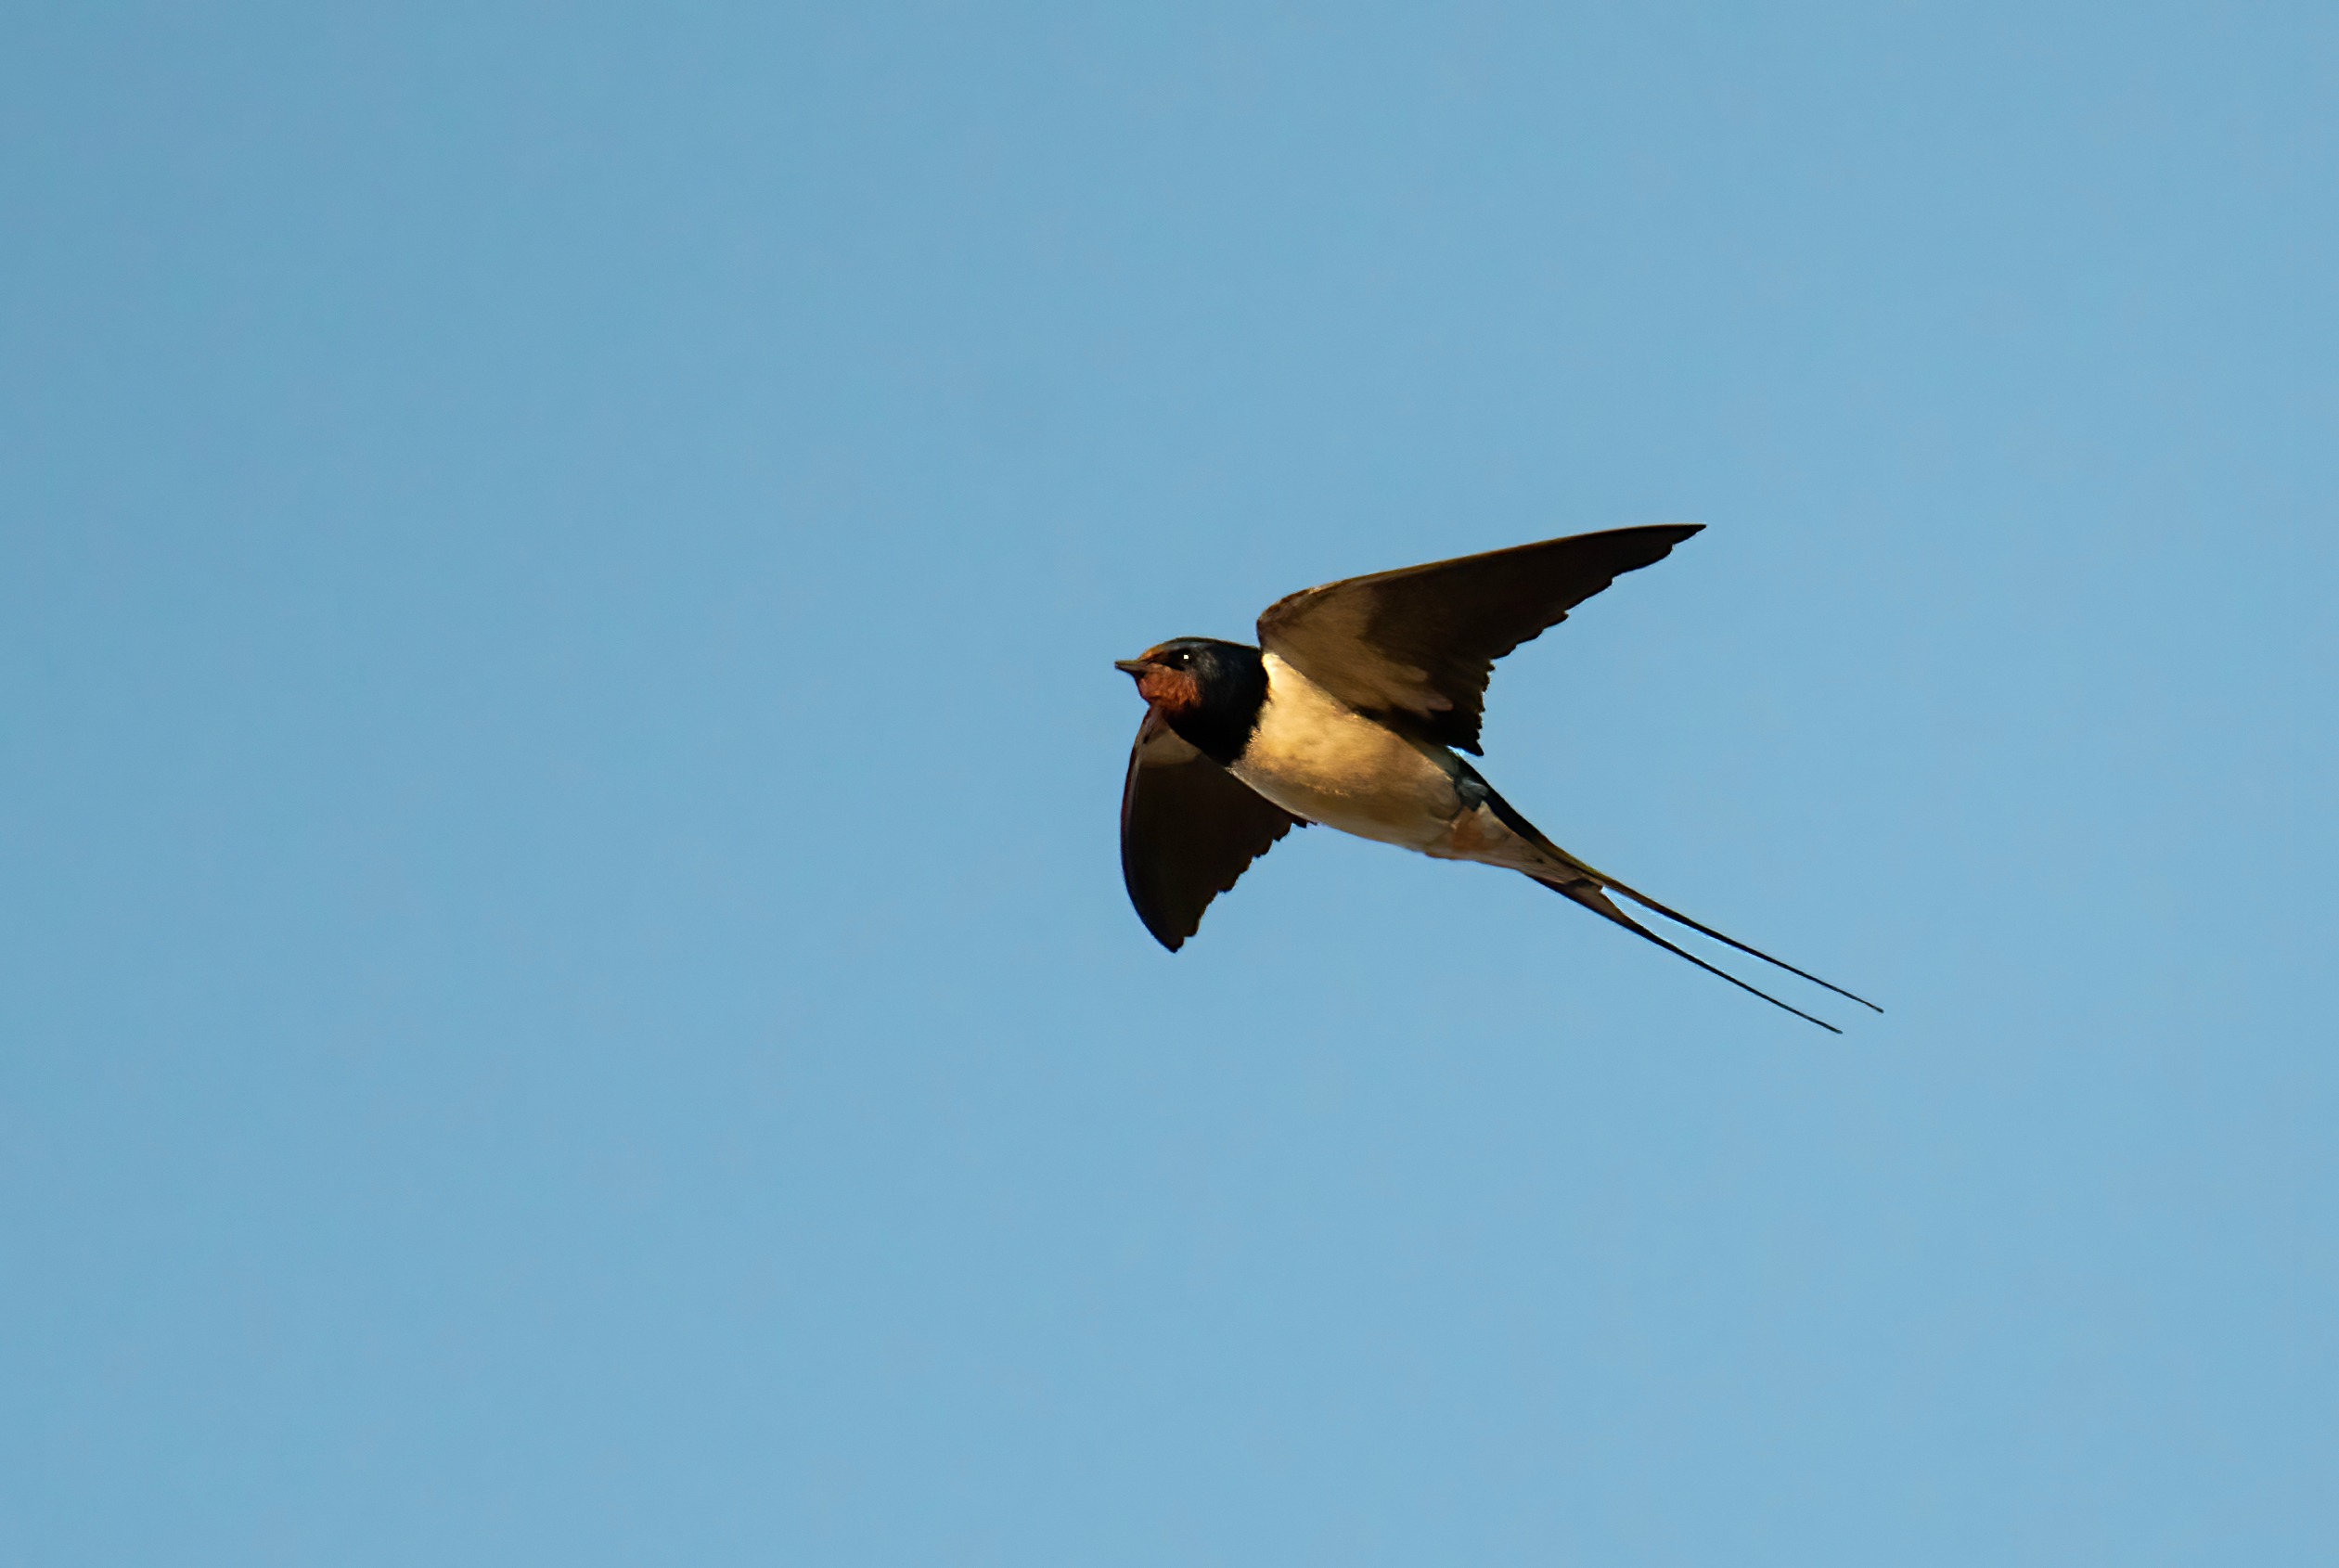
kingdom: Animalia
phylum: Chordata
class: Aves
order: Passeriformes
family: Hirundinidae
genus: Hirundo
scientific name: Hirundo rustica
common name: Landsvale
